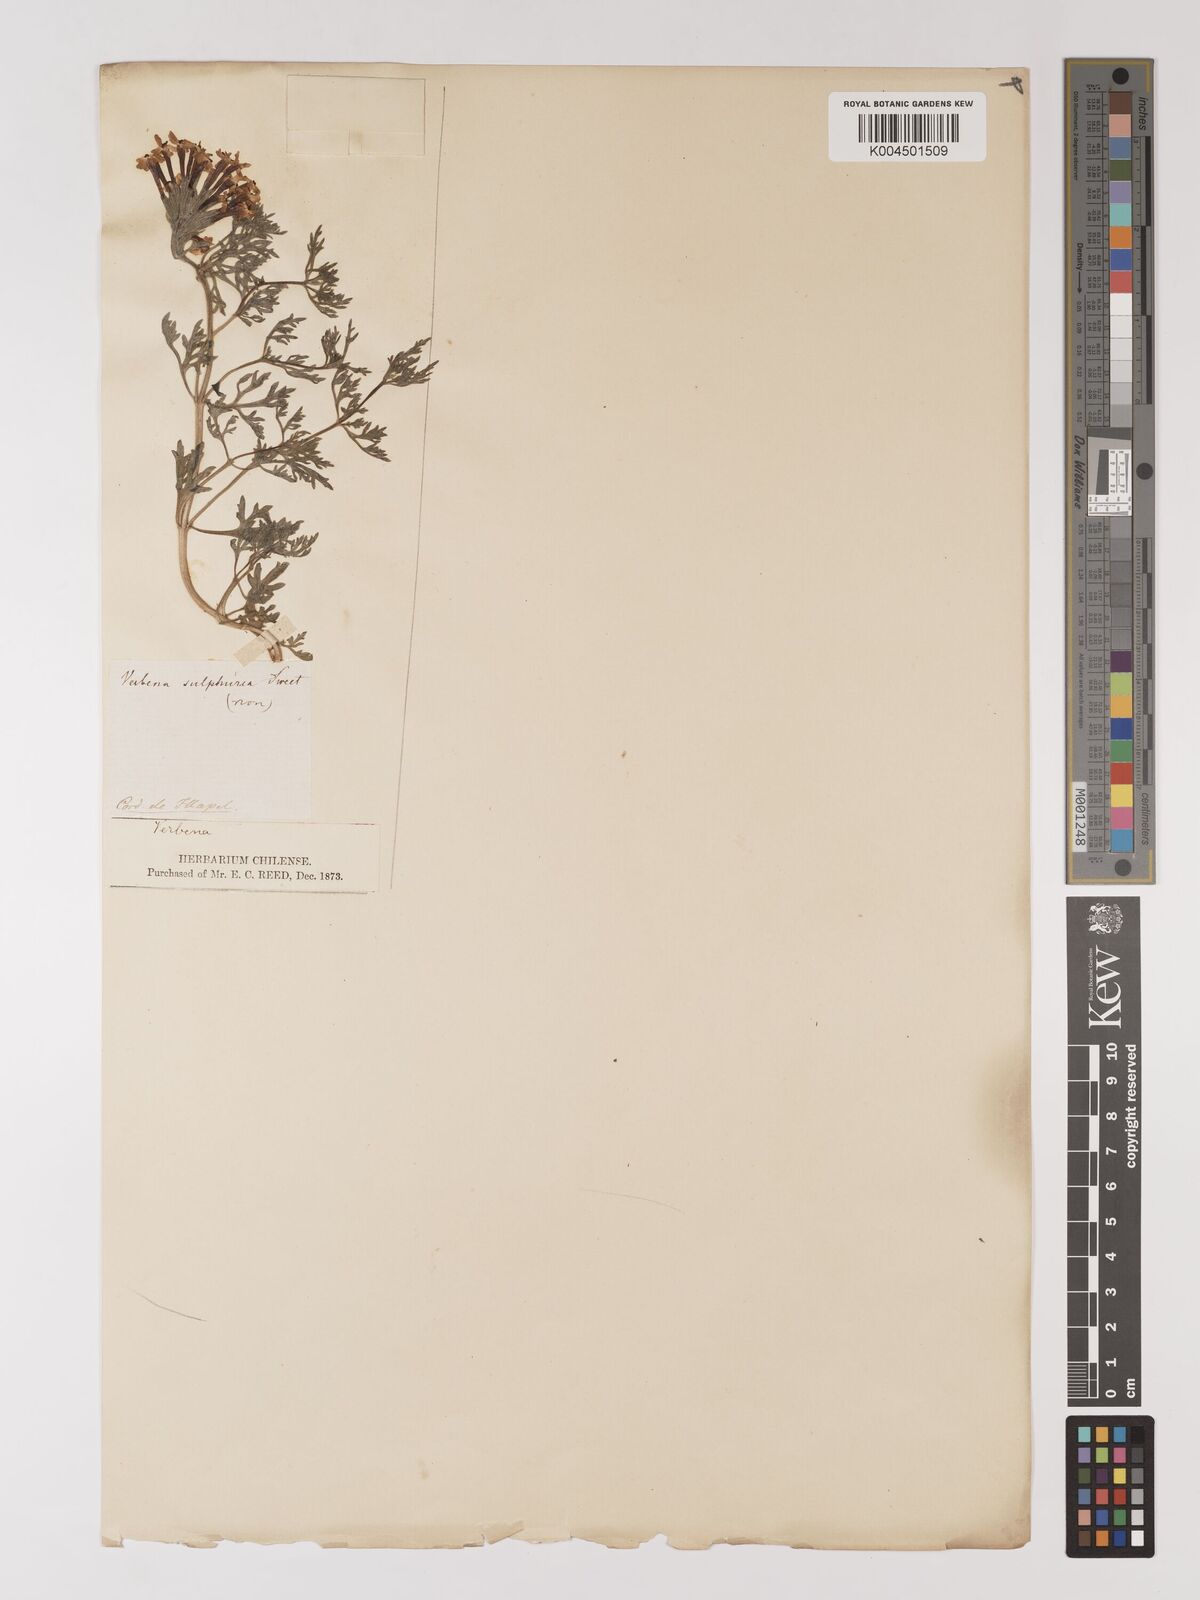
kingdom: Plantae
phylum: Tracheophyta
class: Magnoliopsida
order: Lamiales
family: Verbenaceae
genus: Verbena
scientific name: Verbena
